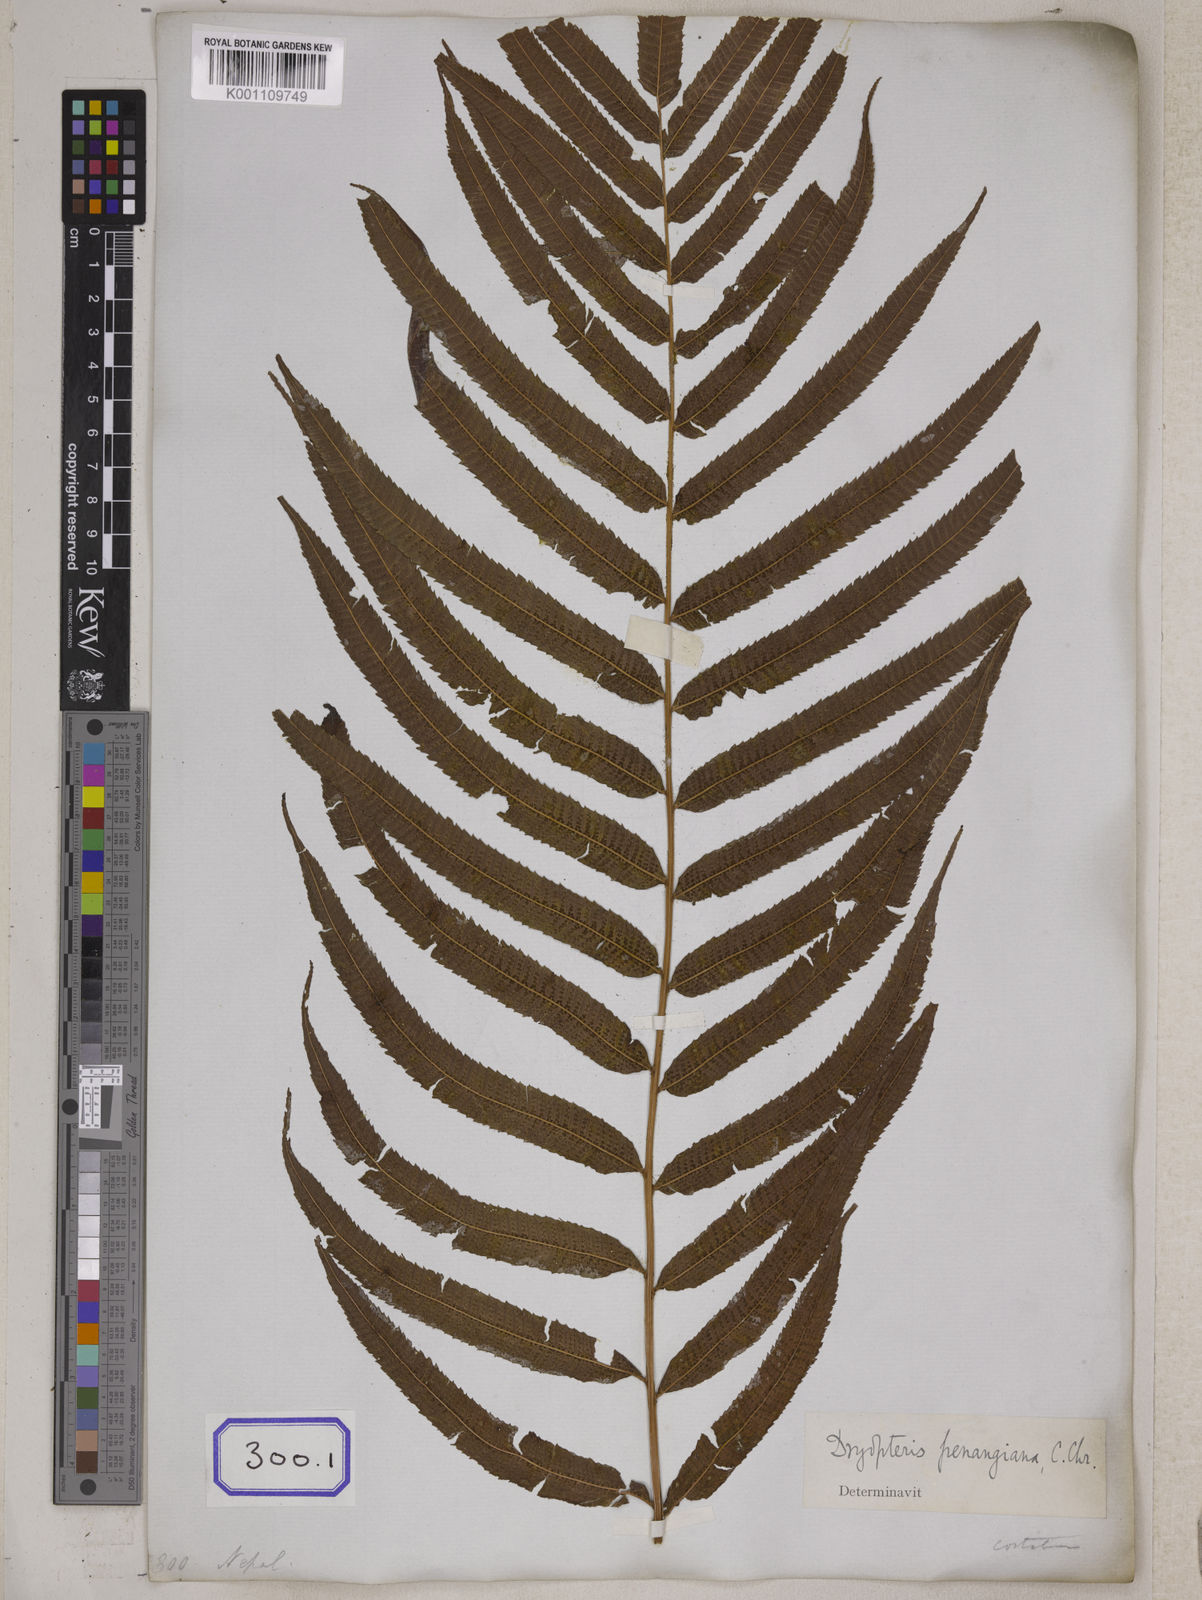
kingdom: Plantae
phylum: Tracheophyta
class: Polypodiopsida
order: Polypodiales
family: Polypodiaceae
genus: Polypodium
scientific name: Polypodium
